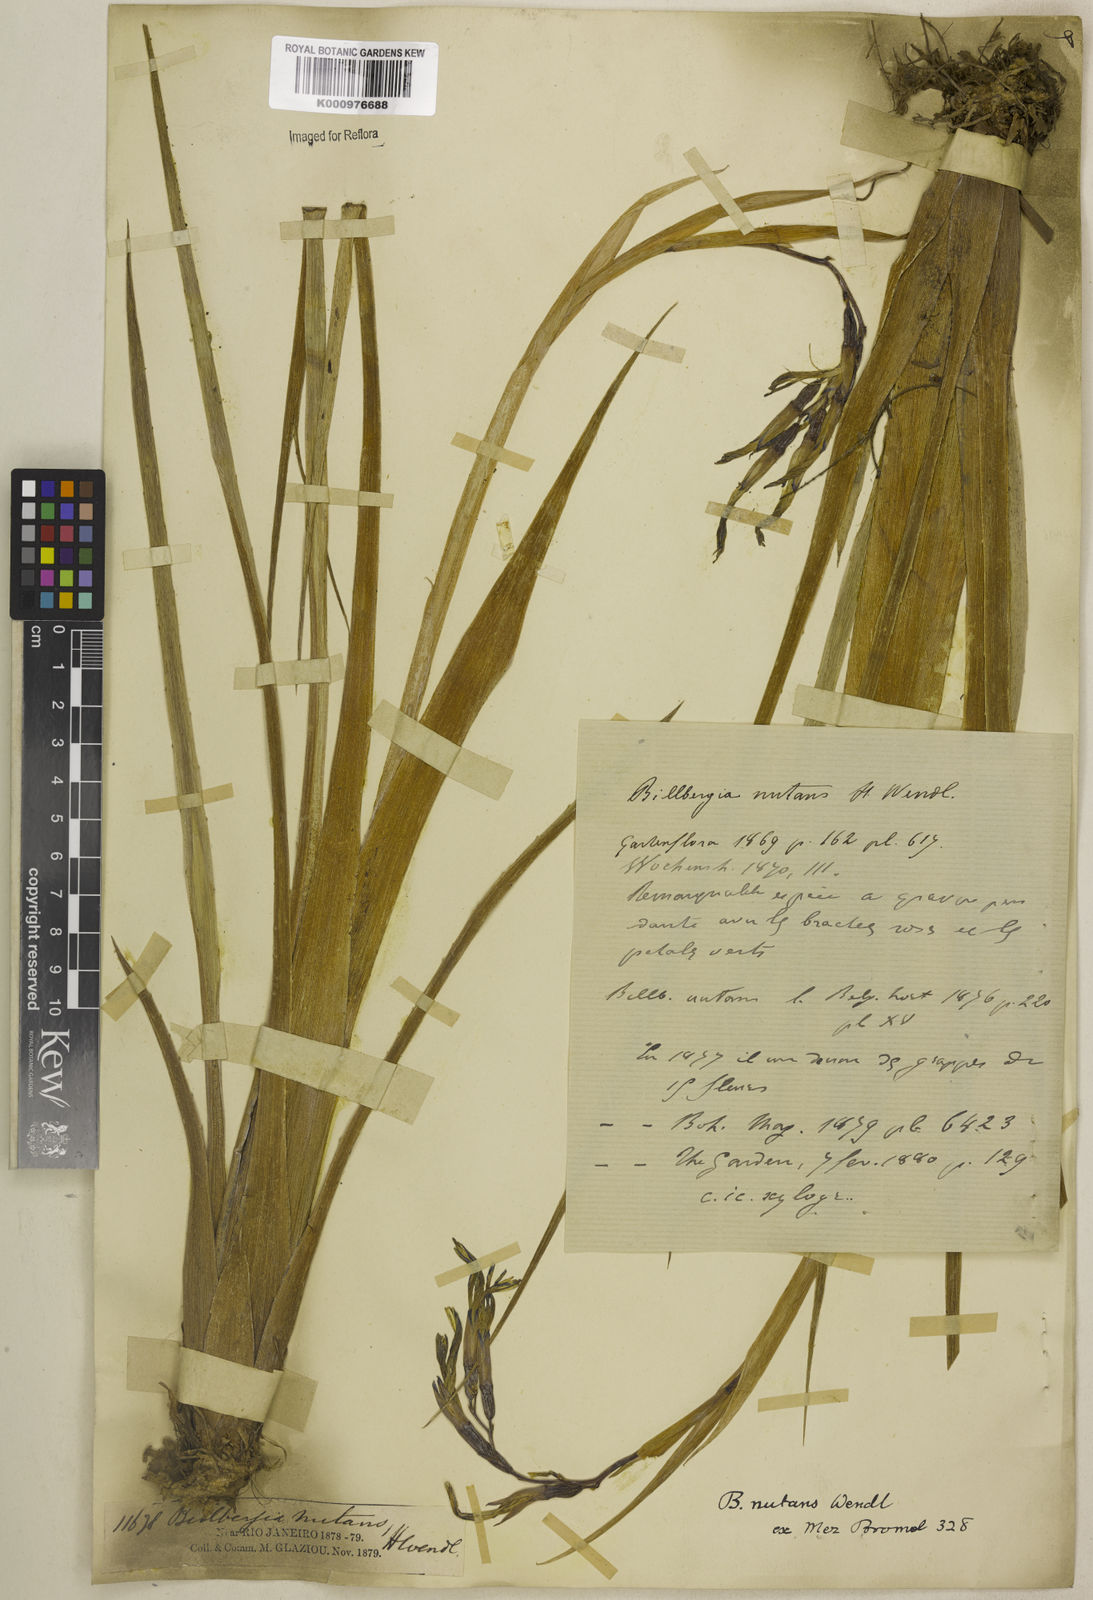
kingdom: Plantae
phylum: Tracheophyta
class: Liliopsida
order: Poales
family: Bromeliaceae
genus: Billbergia
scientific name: Billbergia nutans
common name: Friendship-plant
